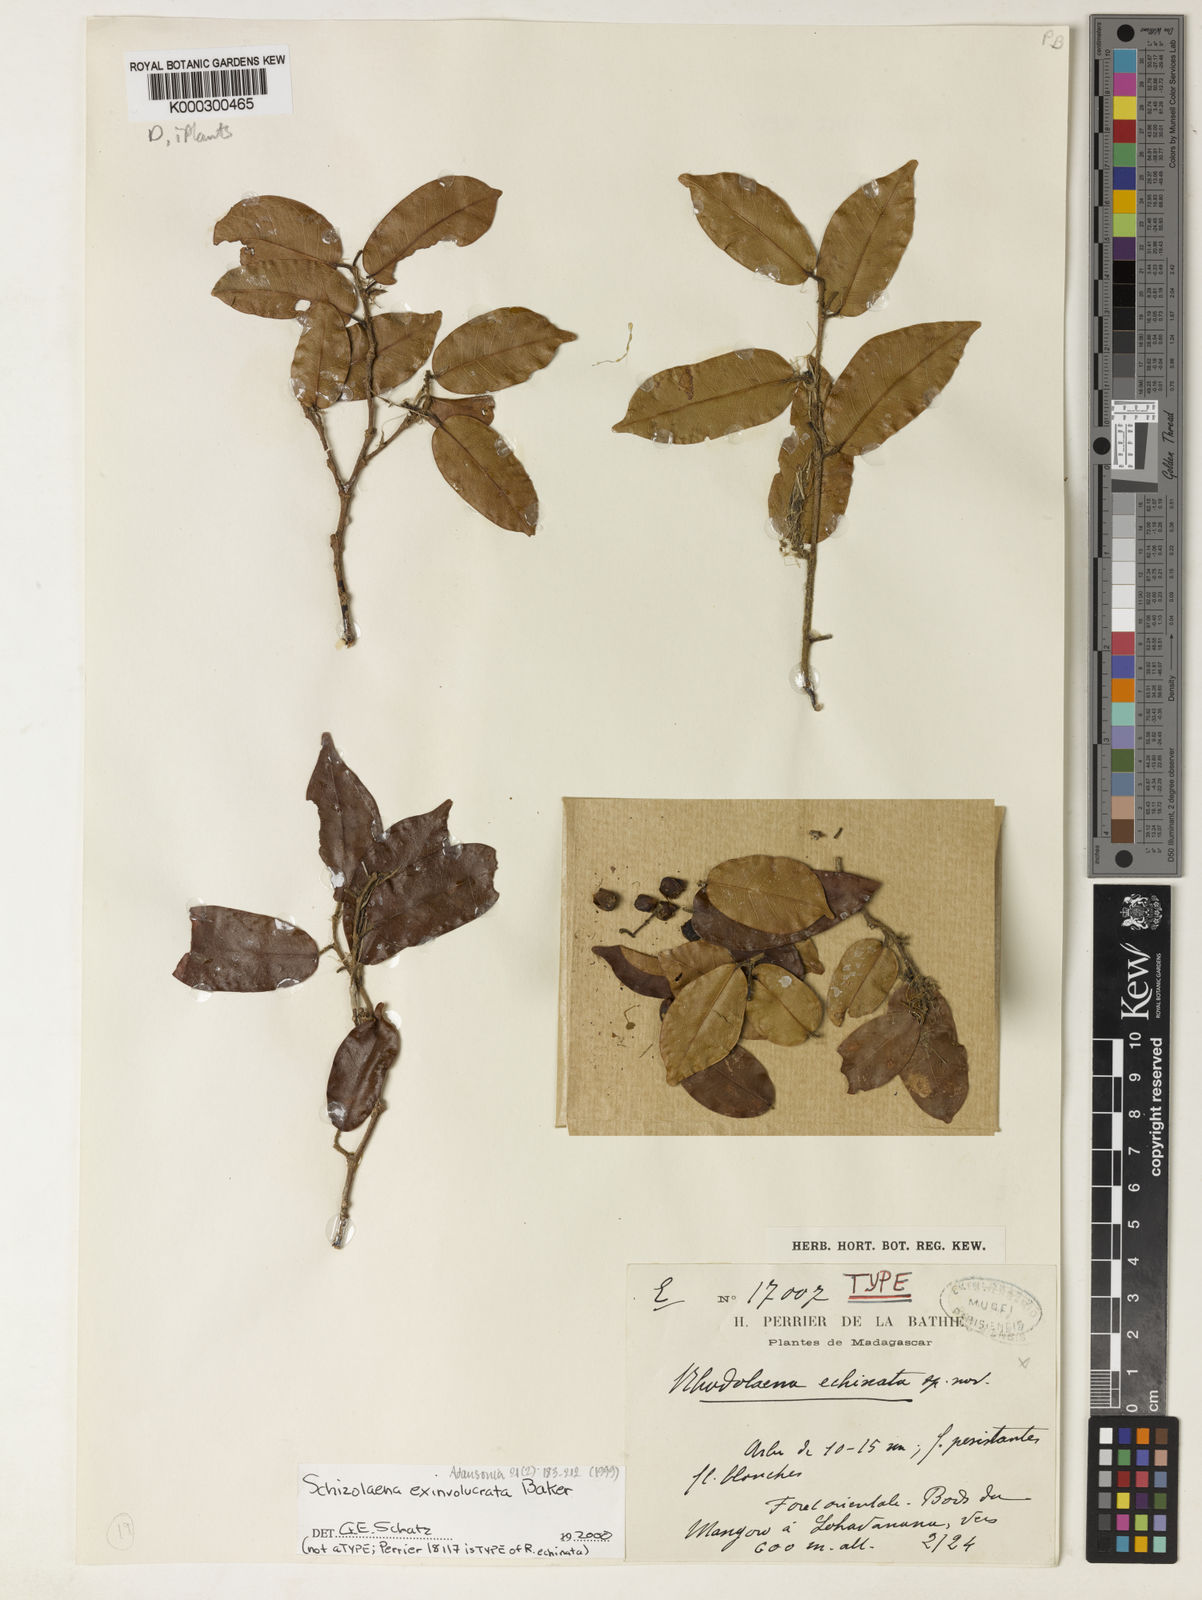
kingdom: Plantae
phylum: Tracheophyta
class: Magnoliopsida
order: Malvales
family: Sarcolaenaceae
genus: Schizolaena
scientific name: Schizolaena exinvolucrata
